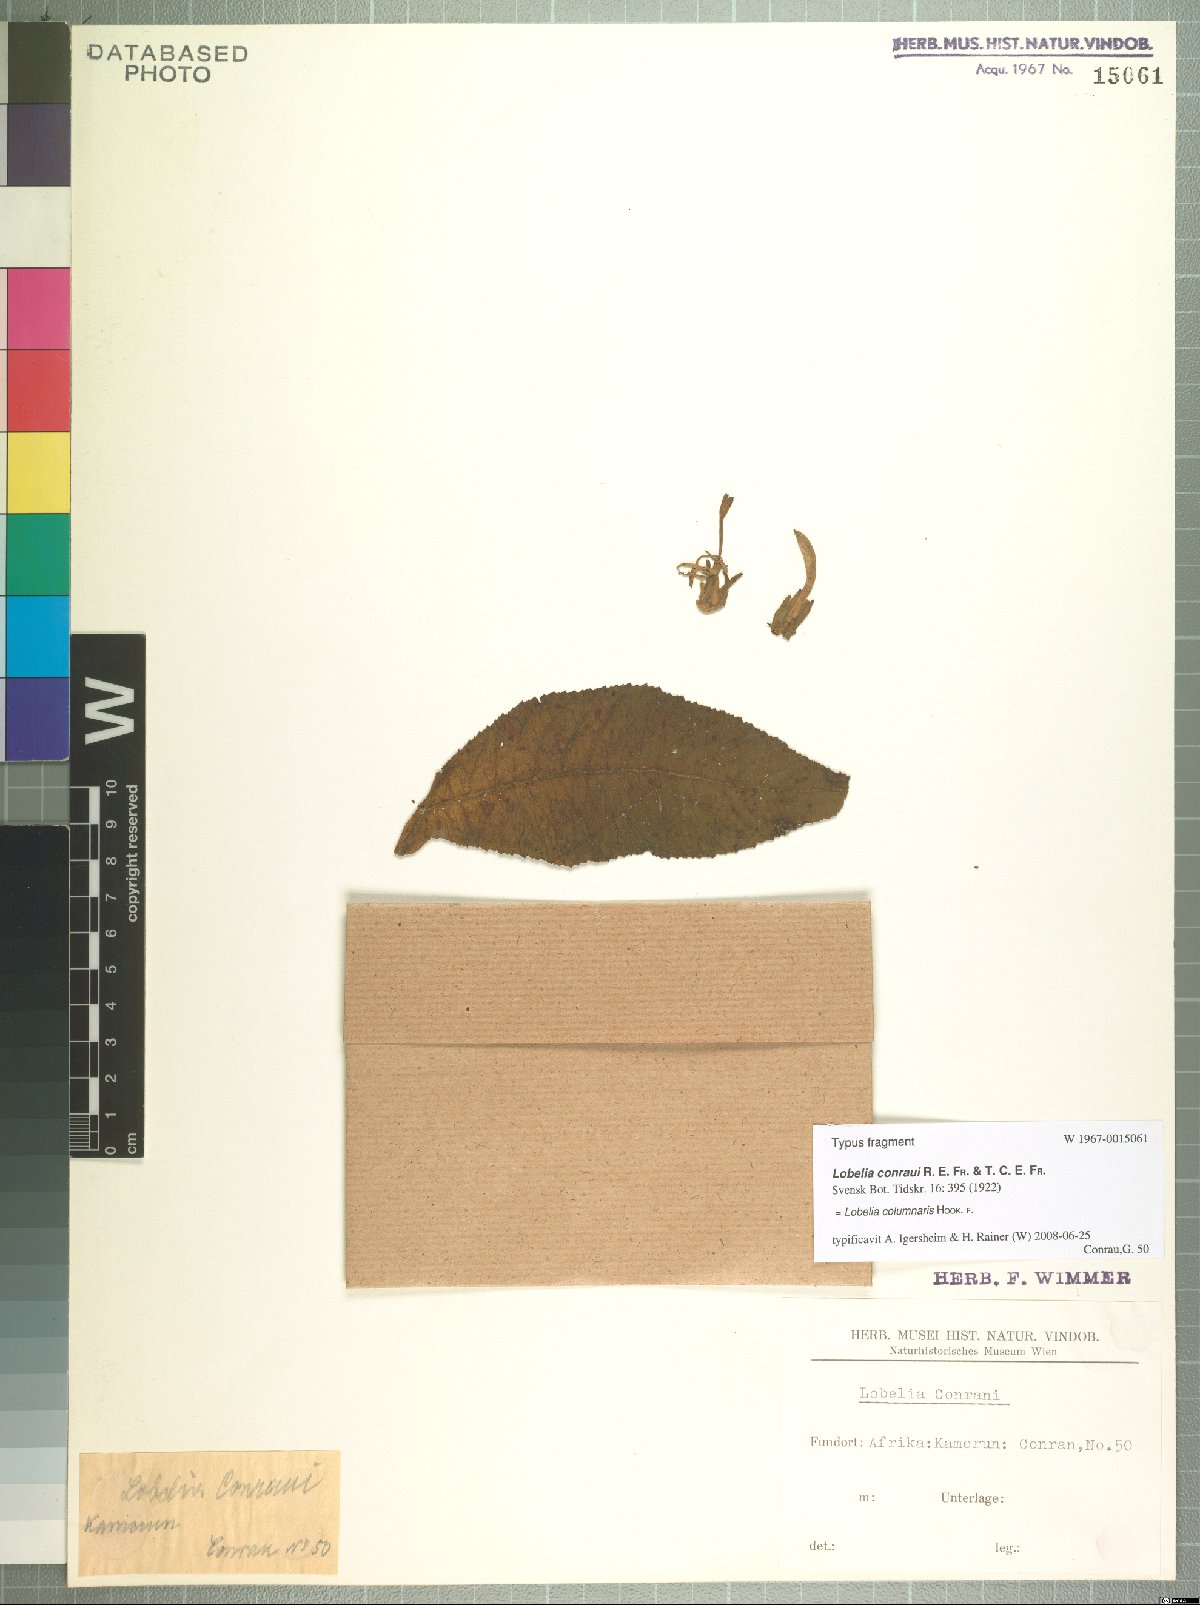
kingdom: Plantae
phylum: Tracheophyta
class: Magnoliopsida
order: Asterales
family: Campanulaceae
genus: Lobelia
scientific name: Lobelia columnaris
